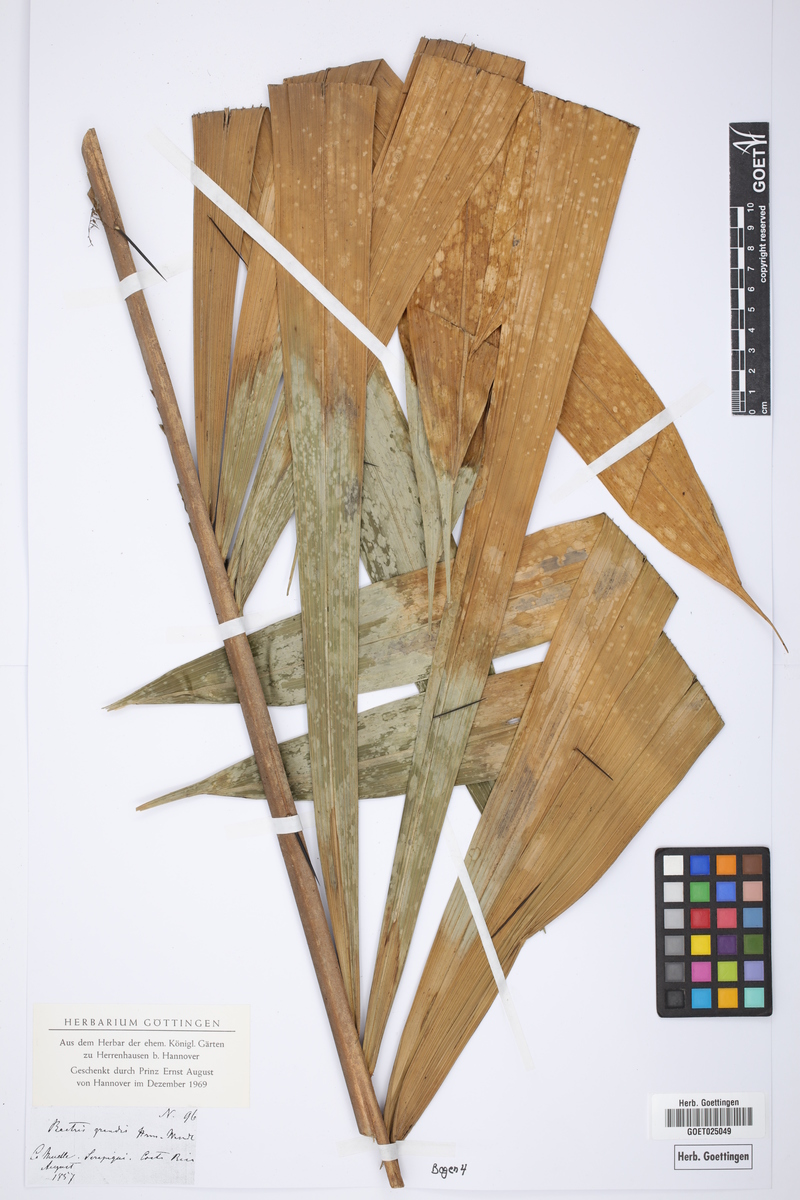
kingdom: Plantae
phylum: Tracheophyta
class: Liliopsida
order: Arecales
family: Arecaceae
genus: Bactris
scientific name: Bactris
